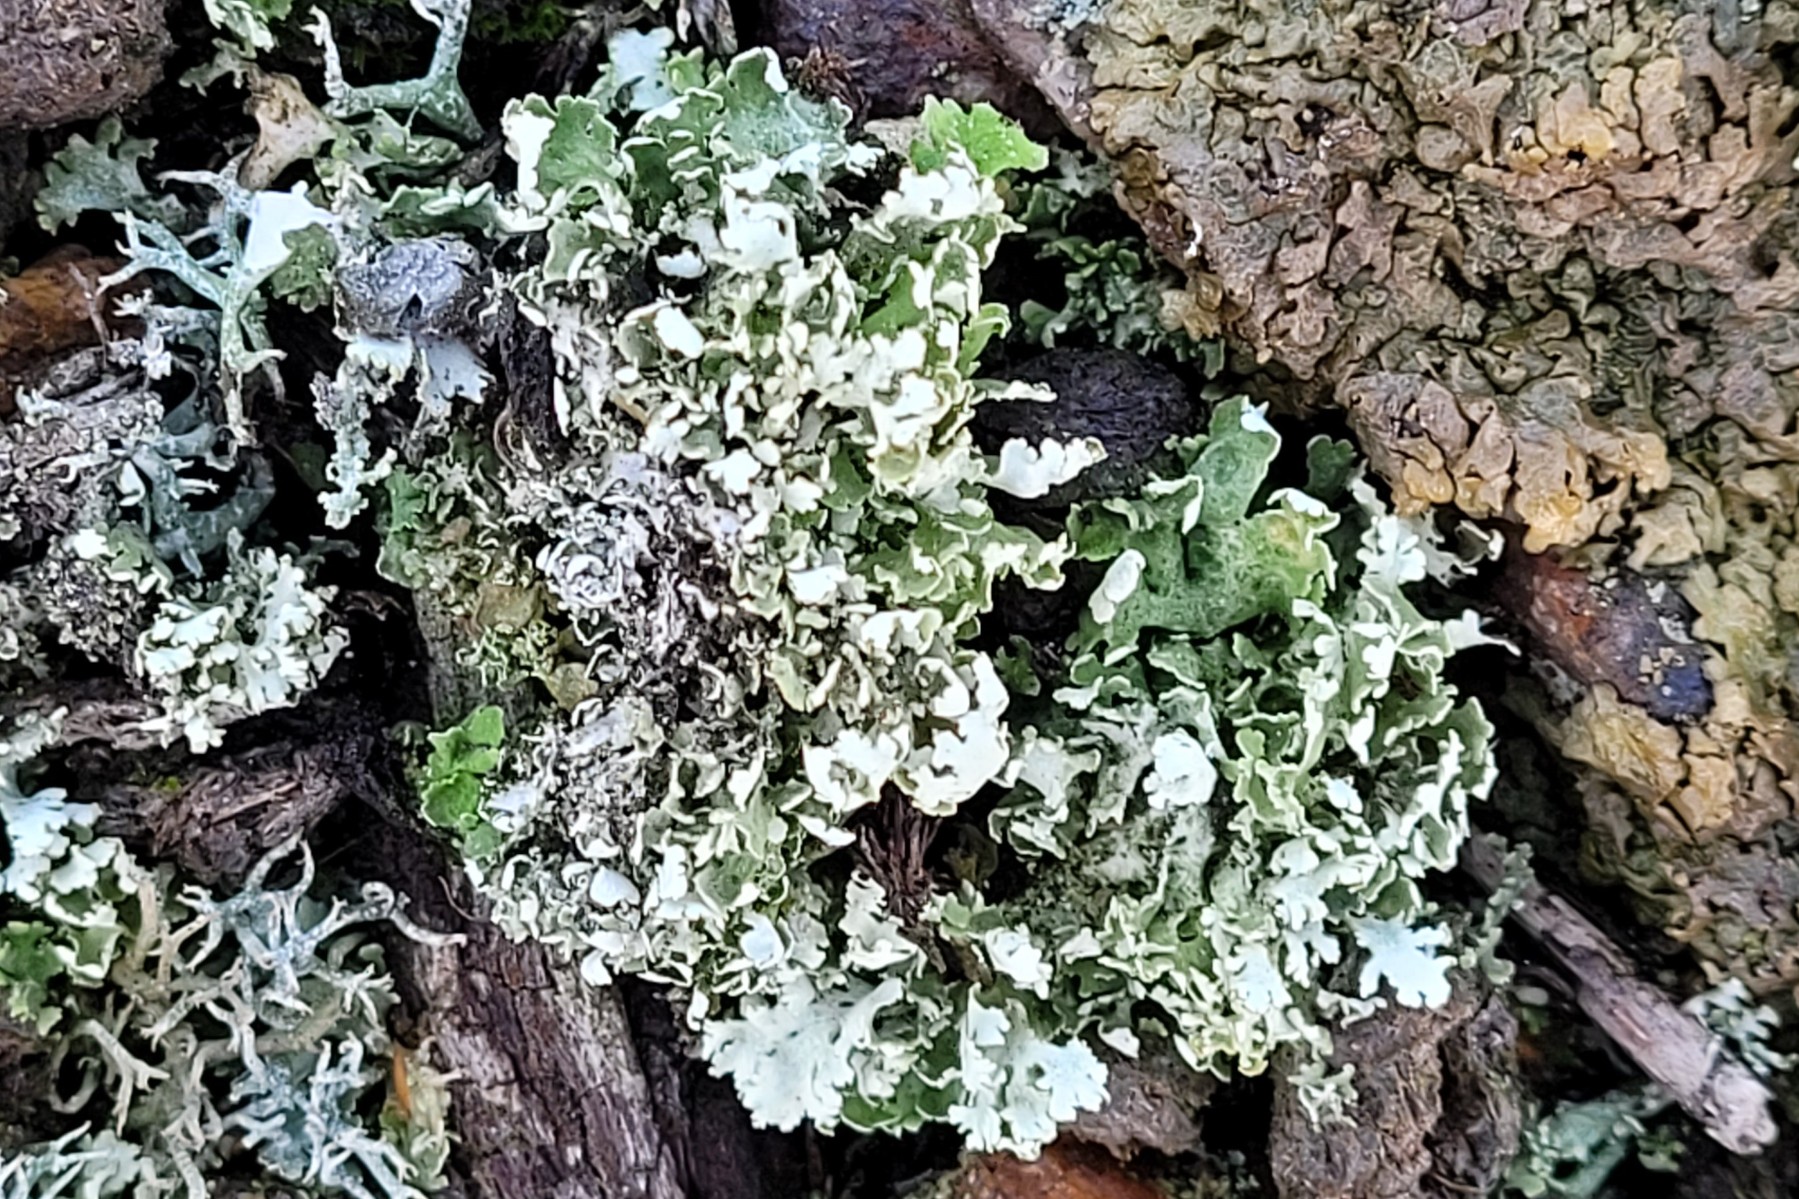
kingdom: Fungi
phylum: Ascomycota
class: Lecanoromycetes
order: Lecanorales
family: Cladoniaceae
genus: Cladonia
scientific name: Cladonia foliacea
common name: fliget bægerlav
